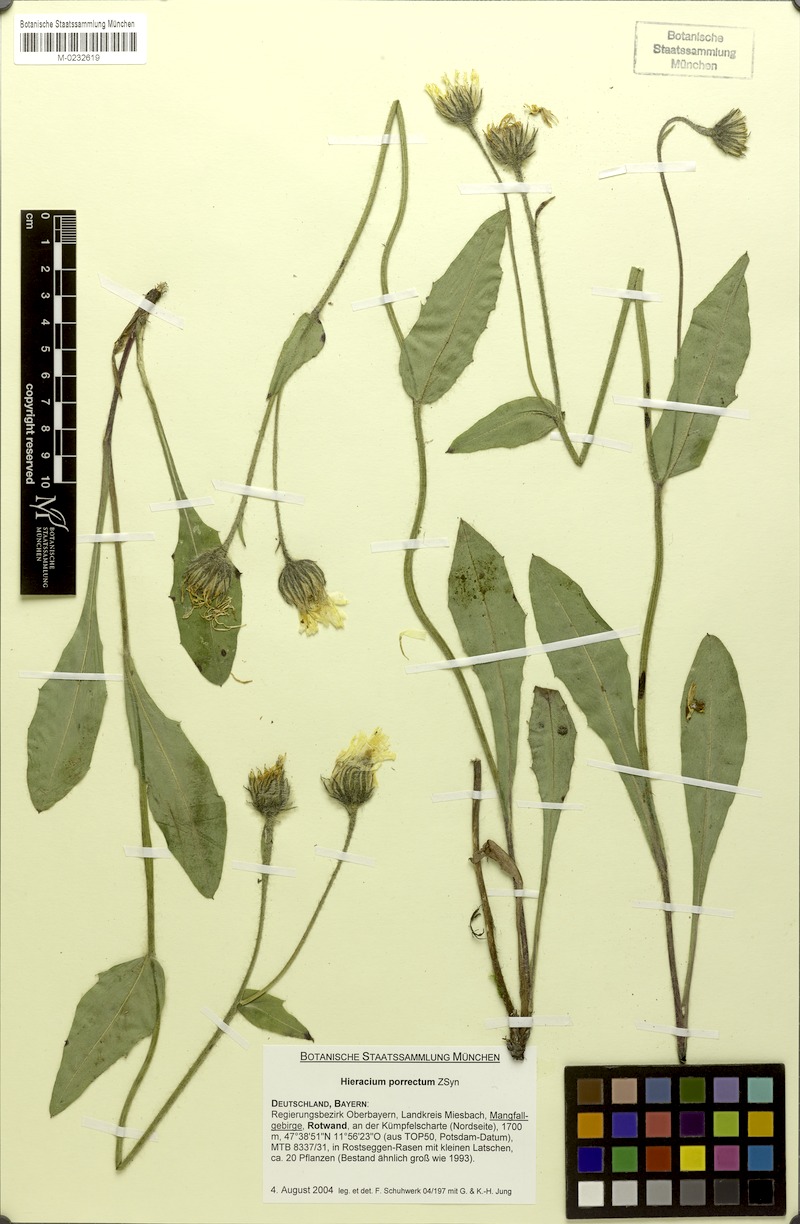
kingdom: Plantae
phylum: Tracheophyta
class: Magnoliopsida
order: Asterales
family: Asteraceae
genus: Hieracium
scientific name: Hieracium porrectum
